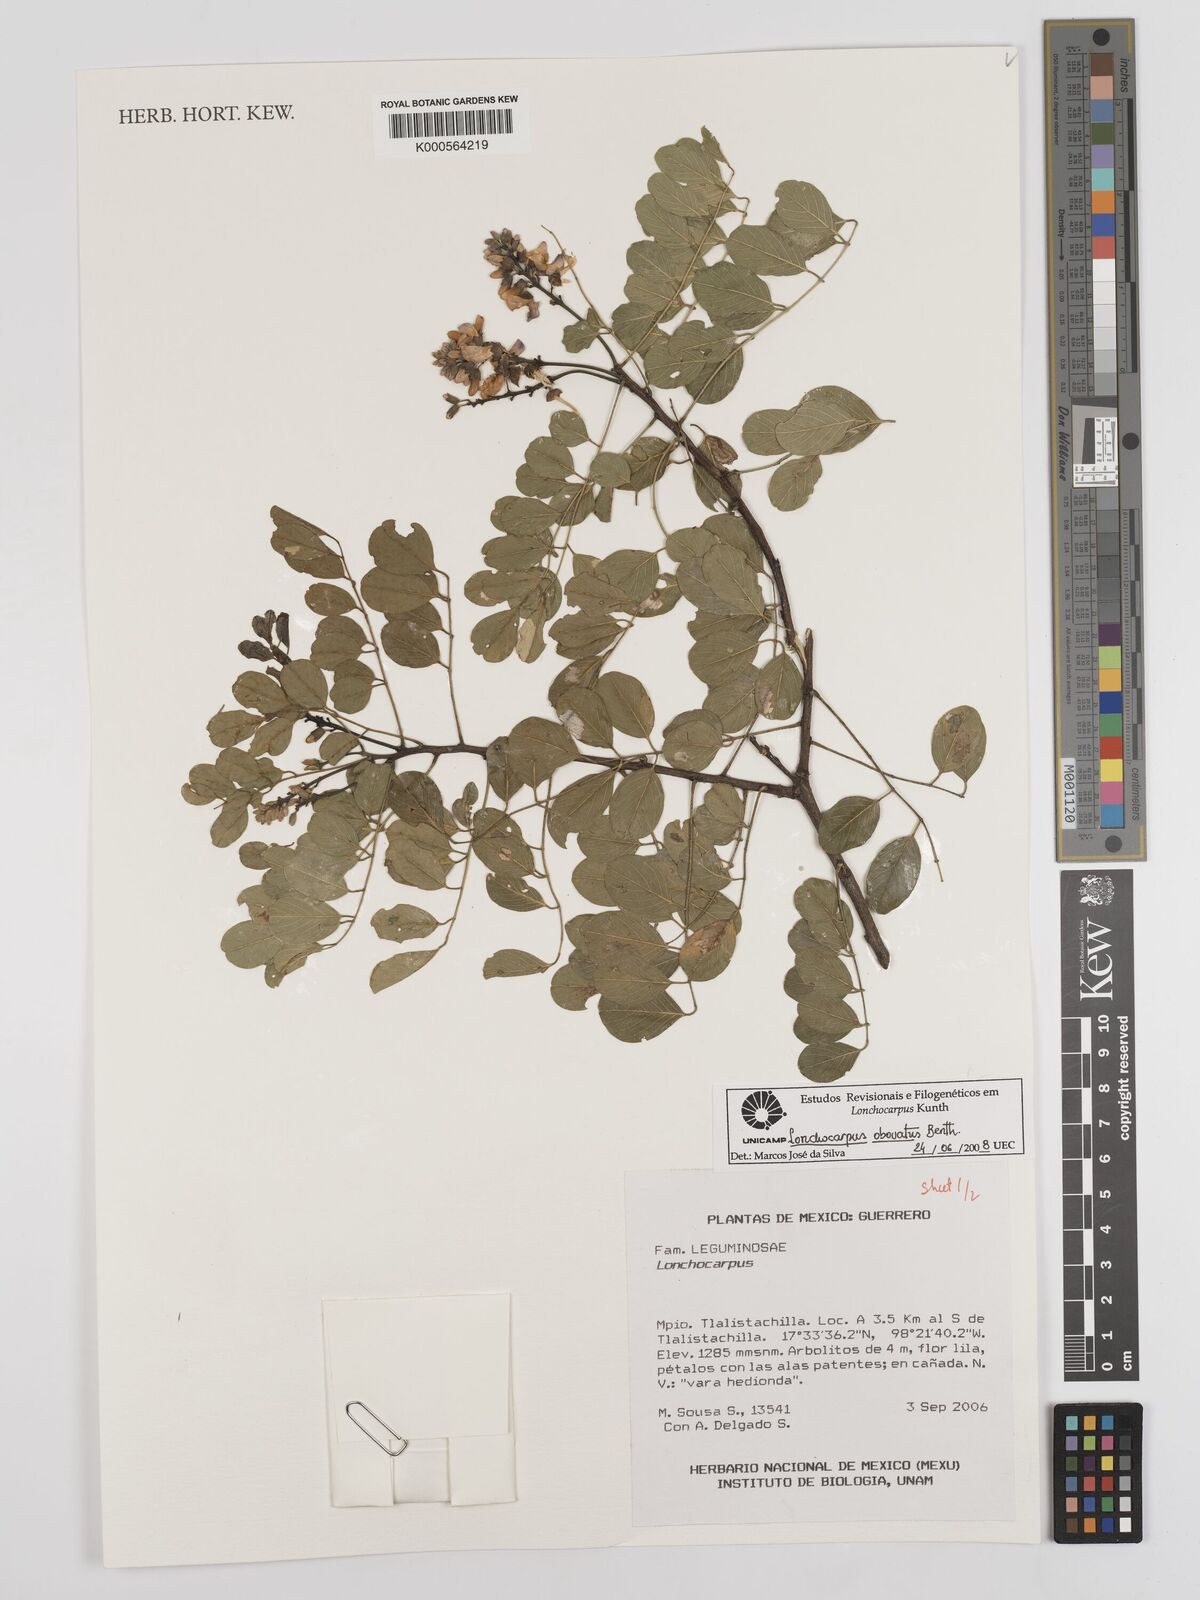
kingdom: Plantae
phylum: Tracheophyta
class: Magnoliopsida
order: Fabales
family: Fabaceae
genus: Lonchocarpus
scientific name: Lonchocarpus obovatus
